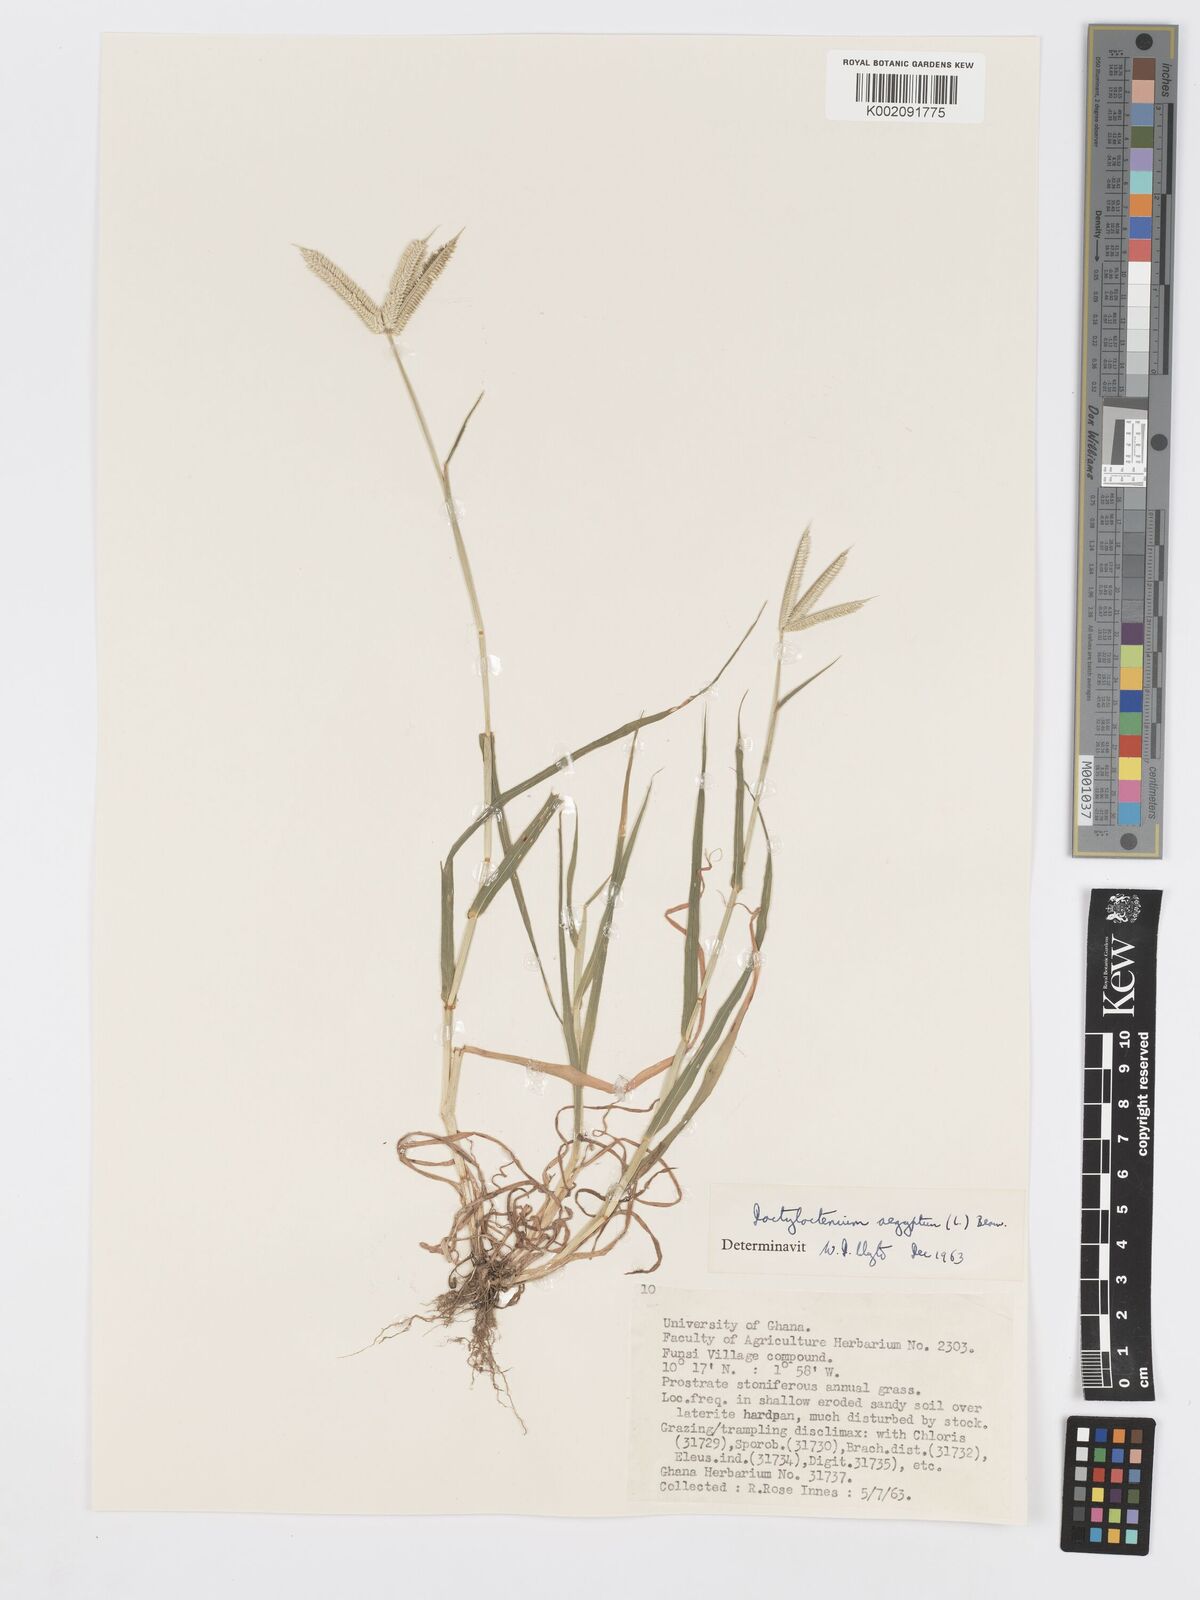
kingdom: Plantae
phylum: Tracheophyta
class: Liliopsida
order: Poales
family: Poaceae
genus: Dactyloctenium
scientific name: Dactyloctenium aegyptium
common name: Egyptian grass
